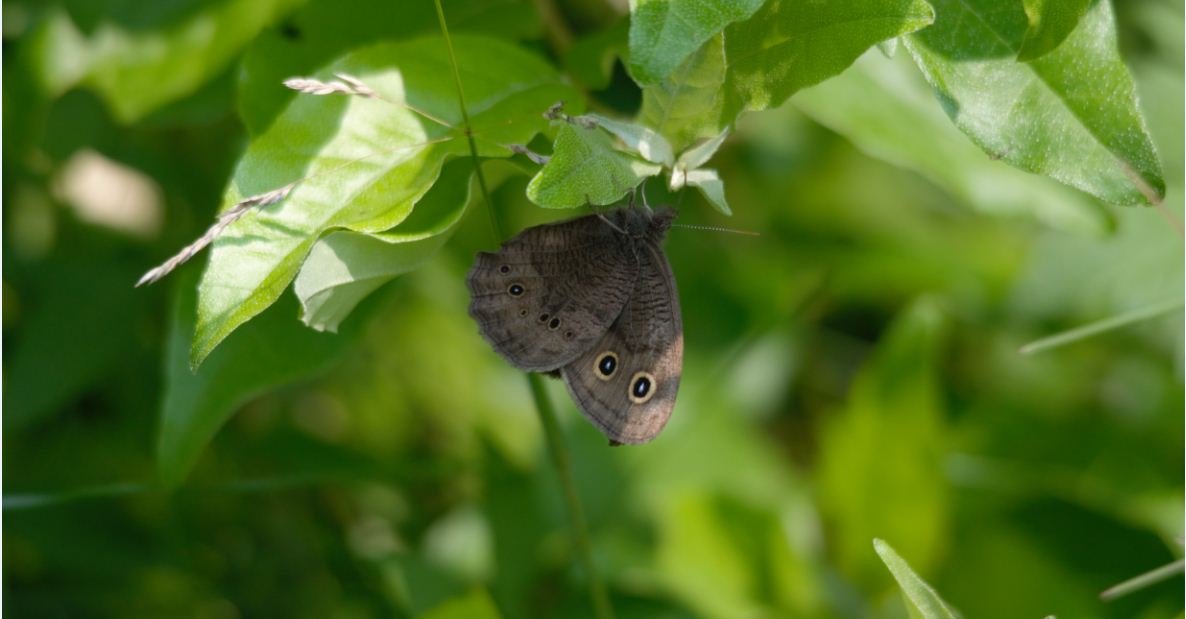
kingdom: Animalia
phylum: Arthropoda
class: Insecta
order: Lepidoptera
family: Nymphalidae
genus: Cercyonis
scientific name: Cercyonis pegala
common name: Common Wood-Nymph
